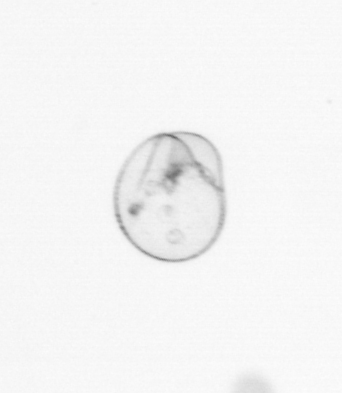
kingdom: Chromista
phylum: Myzozoa
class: Dinophyceae
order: Noctilucales
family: Noctilucaceae
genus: Noctiluca
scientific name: Noctiluca scintillans
